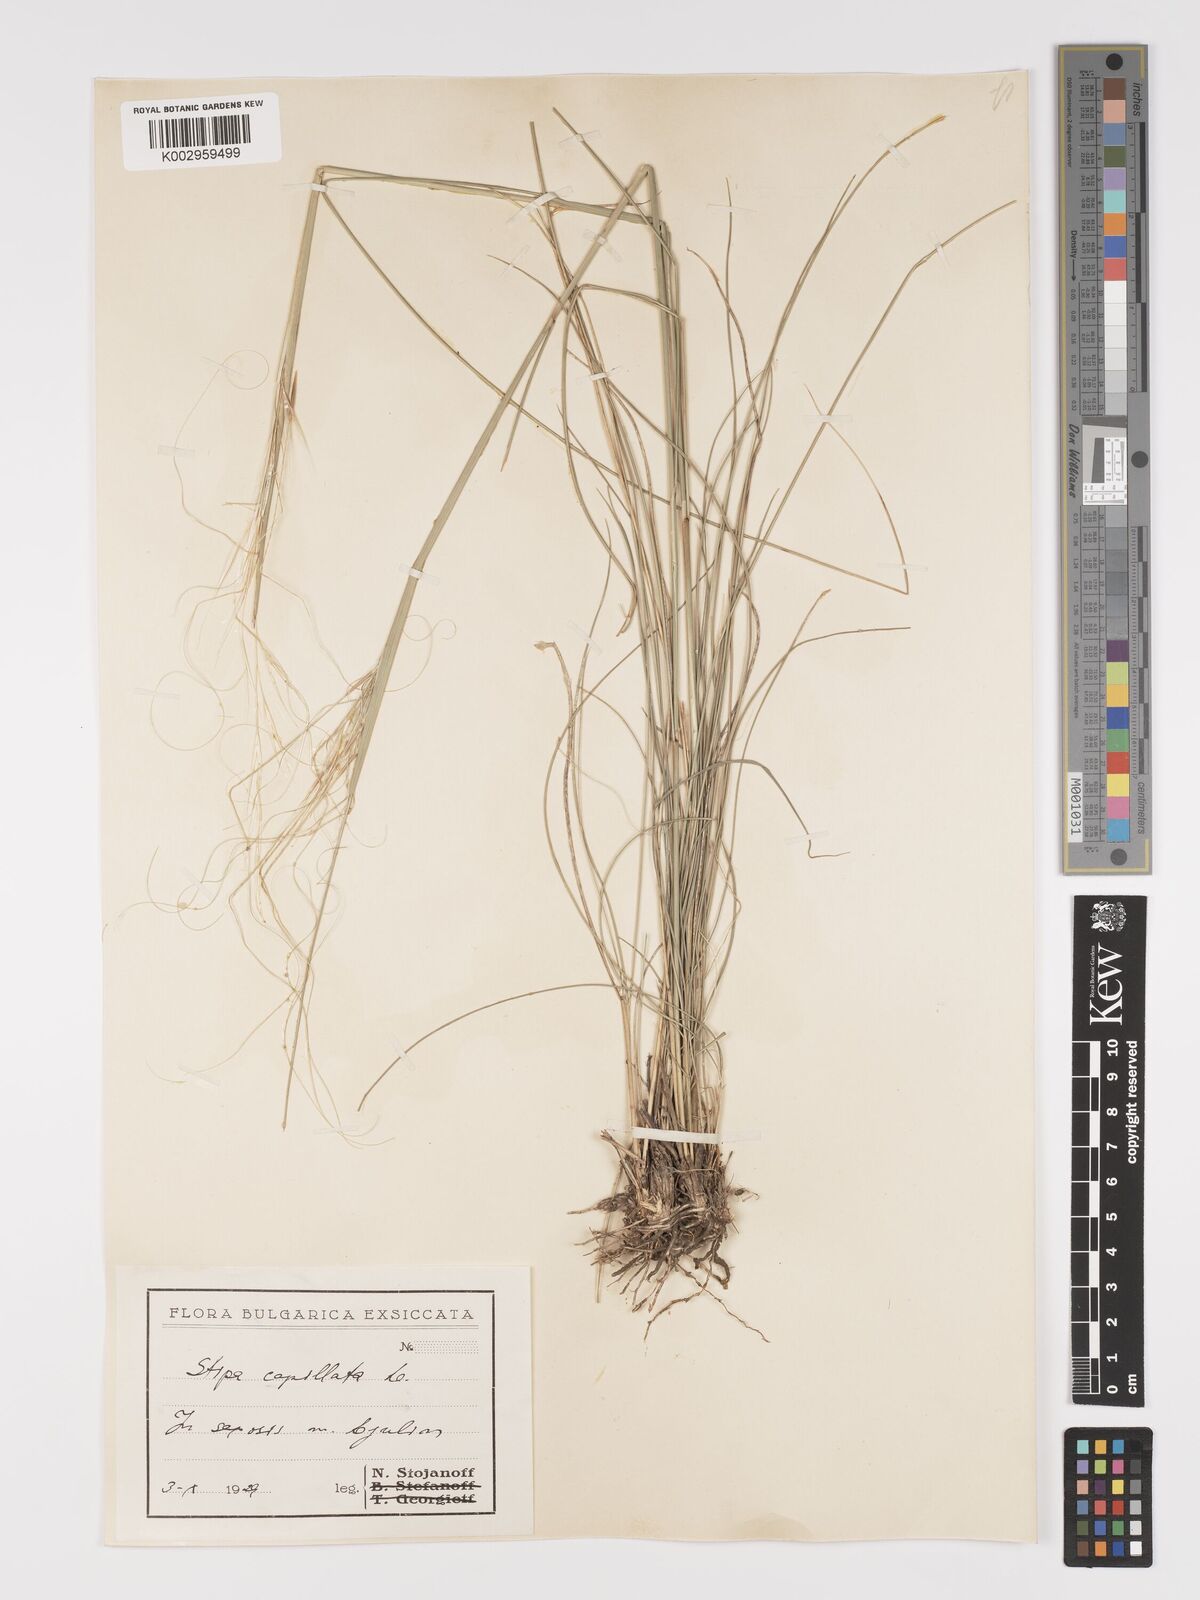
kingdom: Plantae
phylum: Tracheophyta
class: Liliopsida
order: Poales
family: Poaceae
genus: Stipa
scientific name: Stipa capillata
